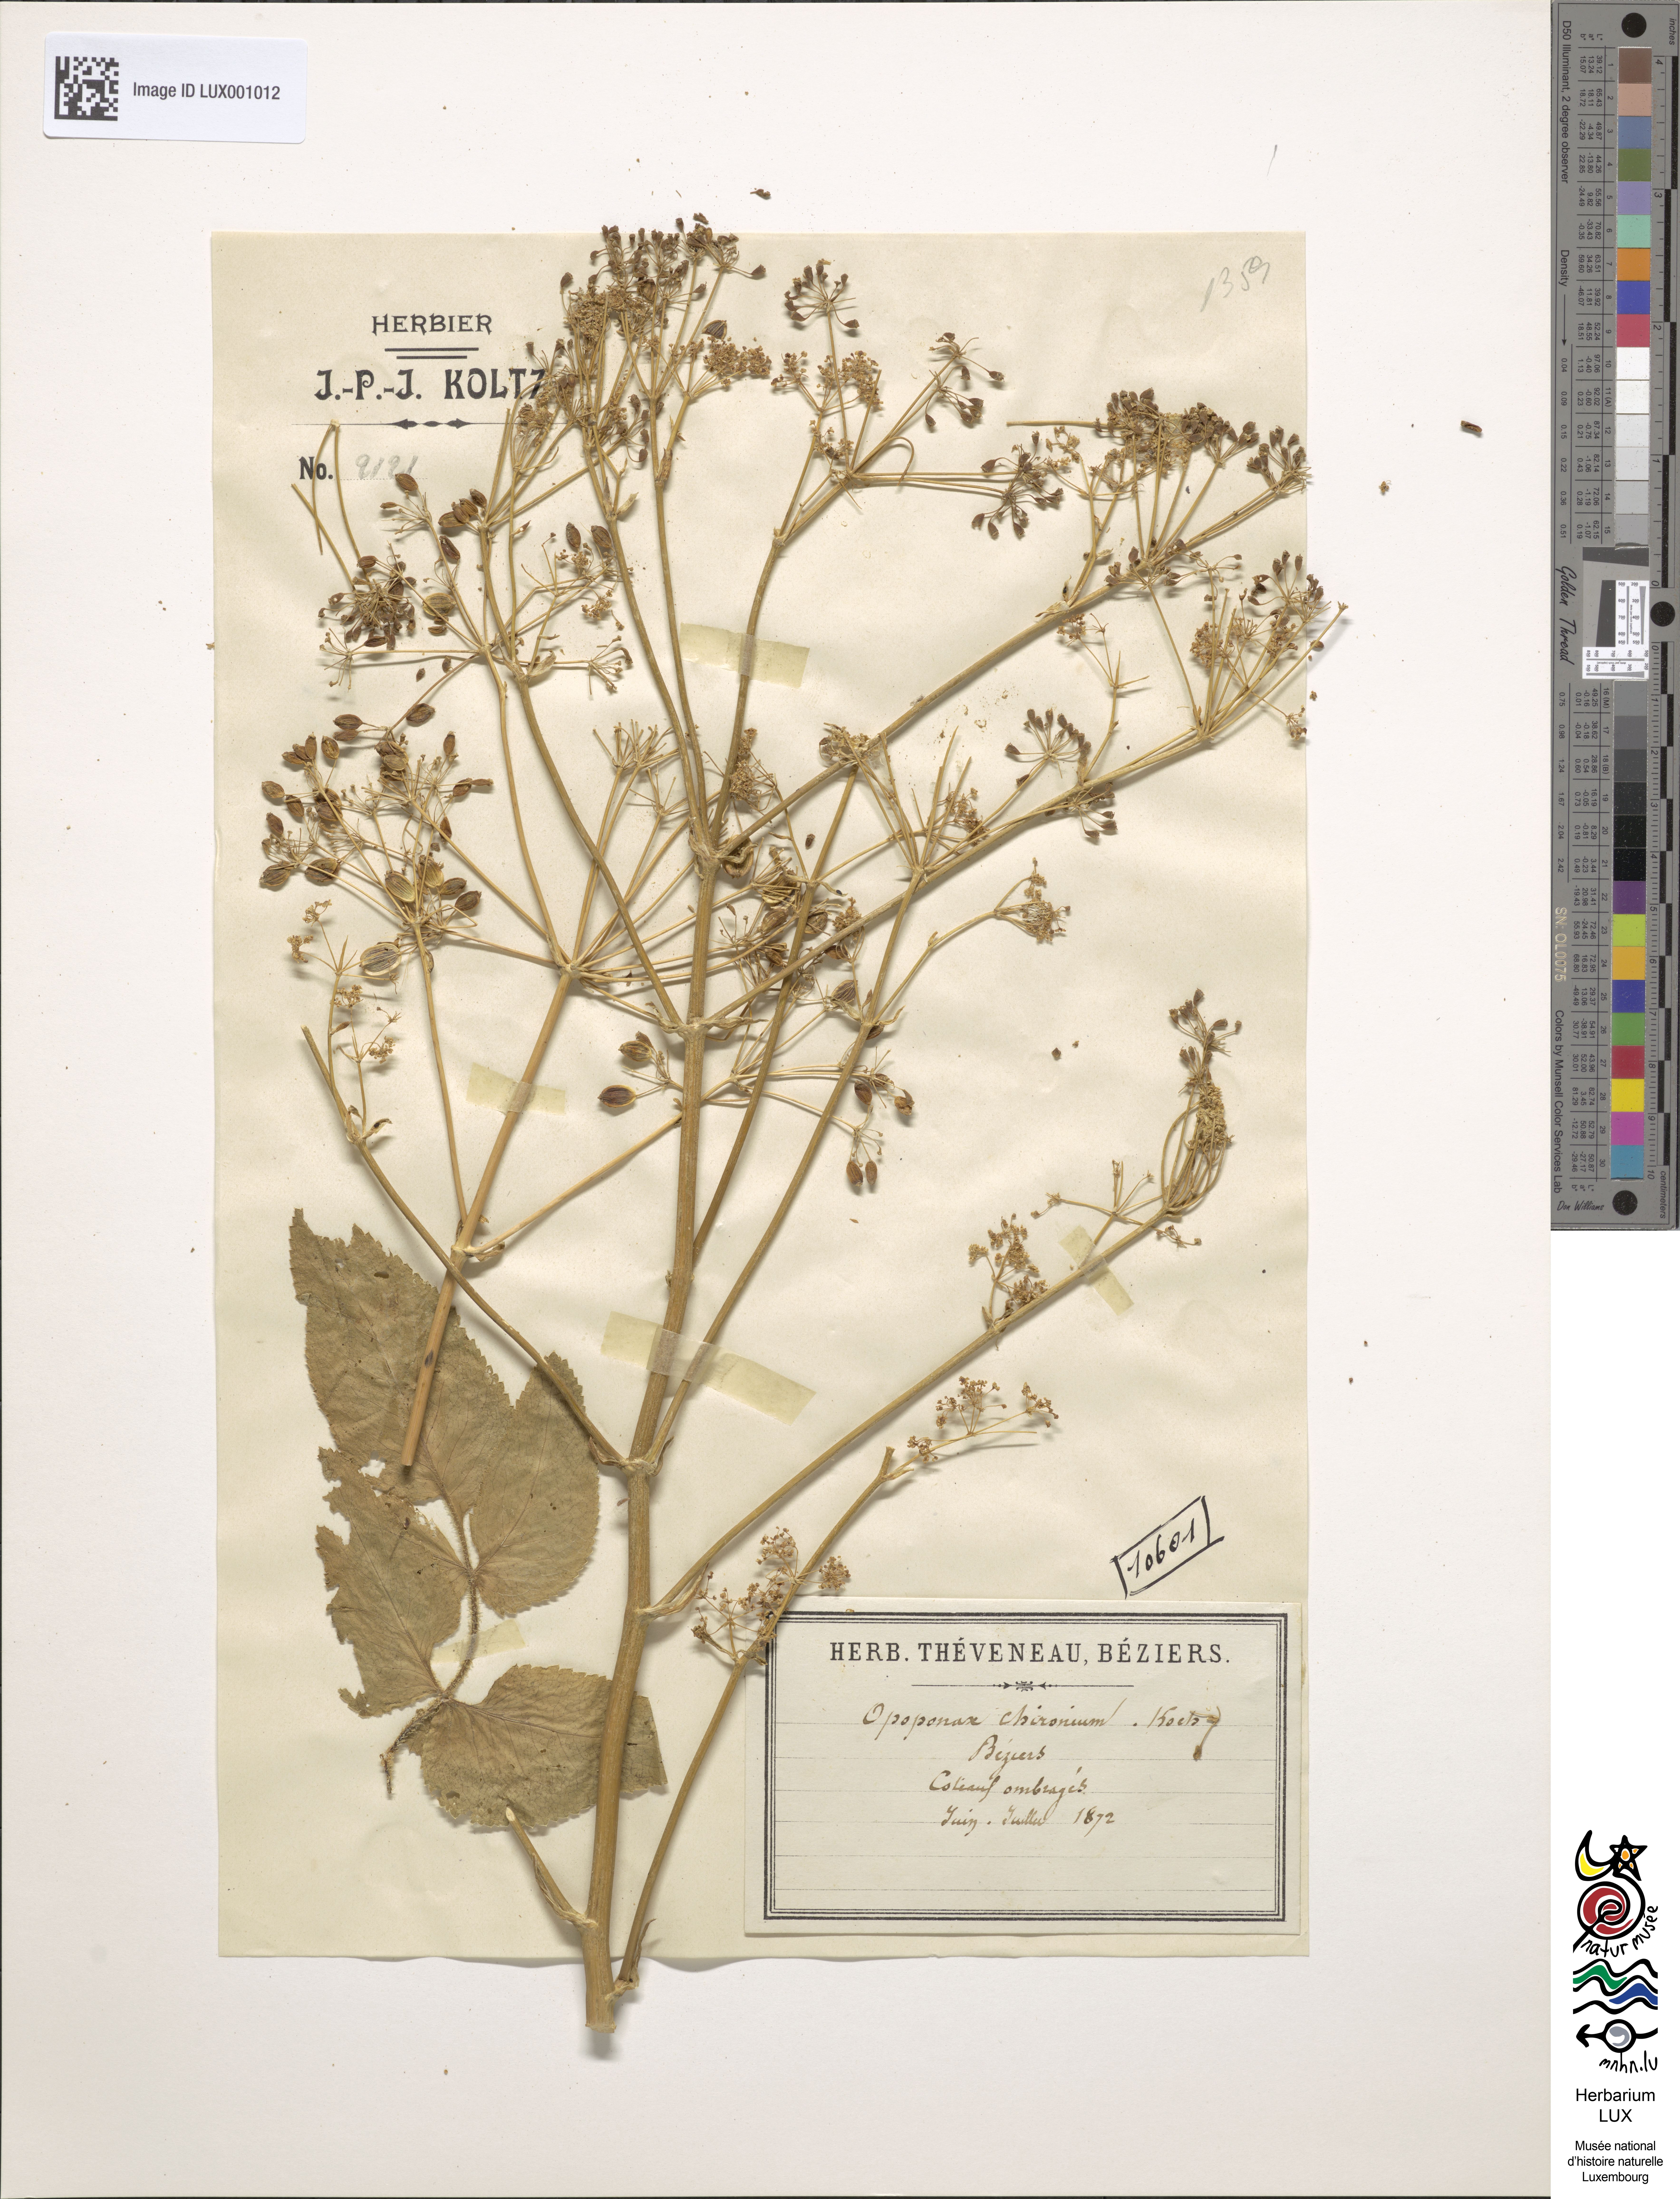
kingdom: Plantae
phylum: Tracheophyta
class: Magnoliopsida
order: Apiales
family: Apiaceae
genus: Opopanax
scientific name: Opopanax chironium
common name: Hercules-all-heal
